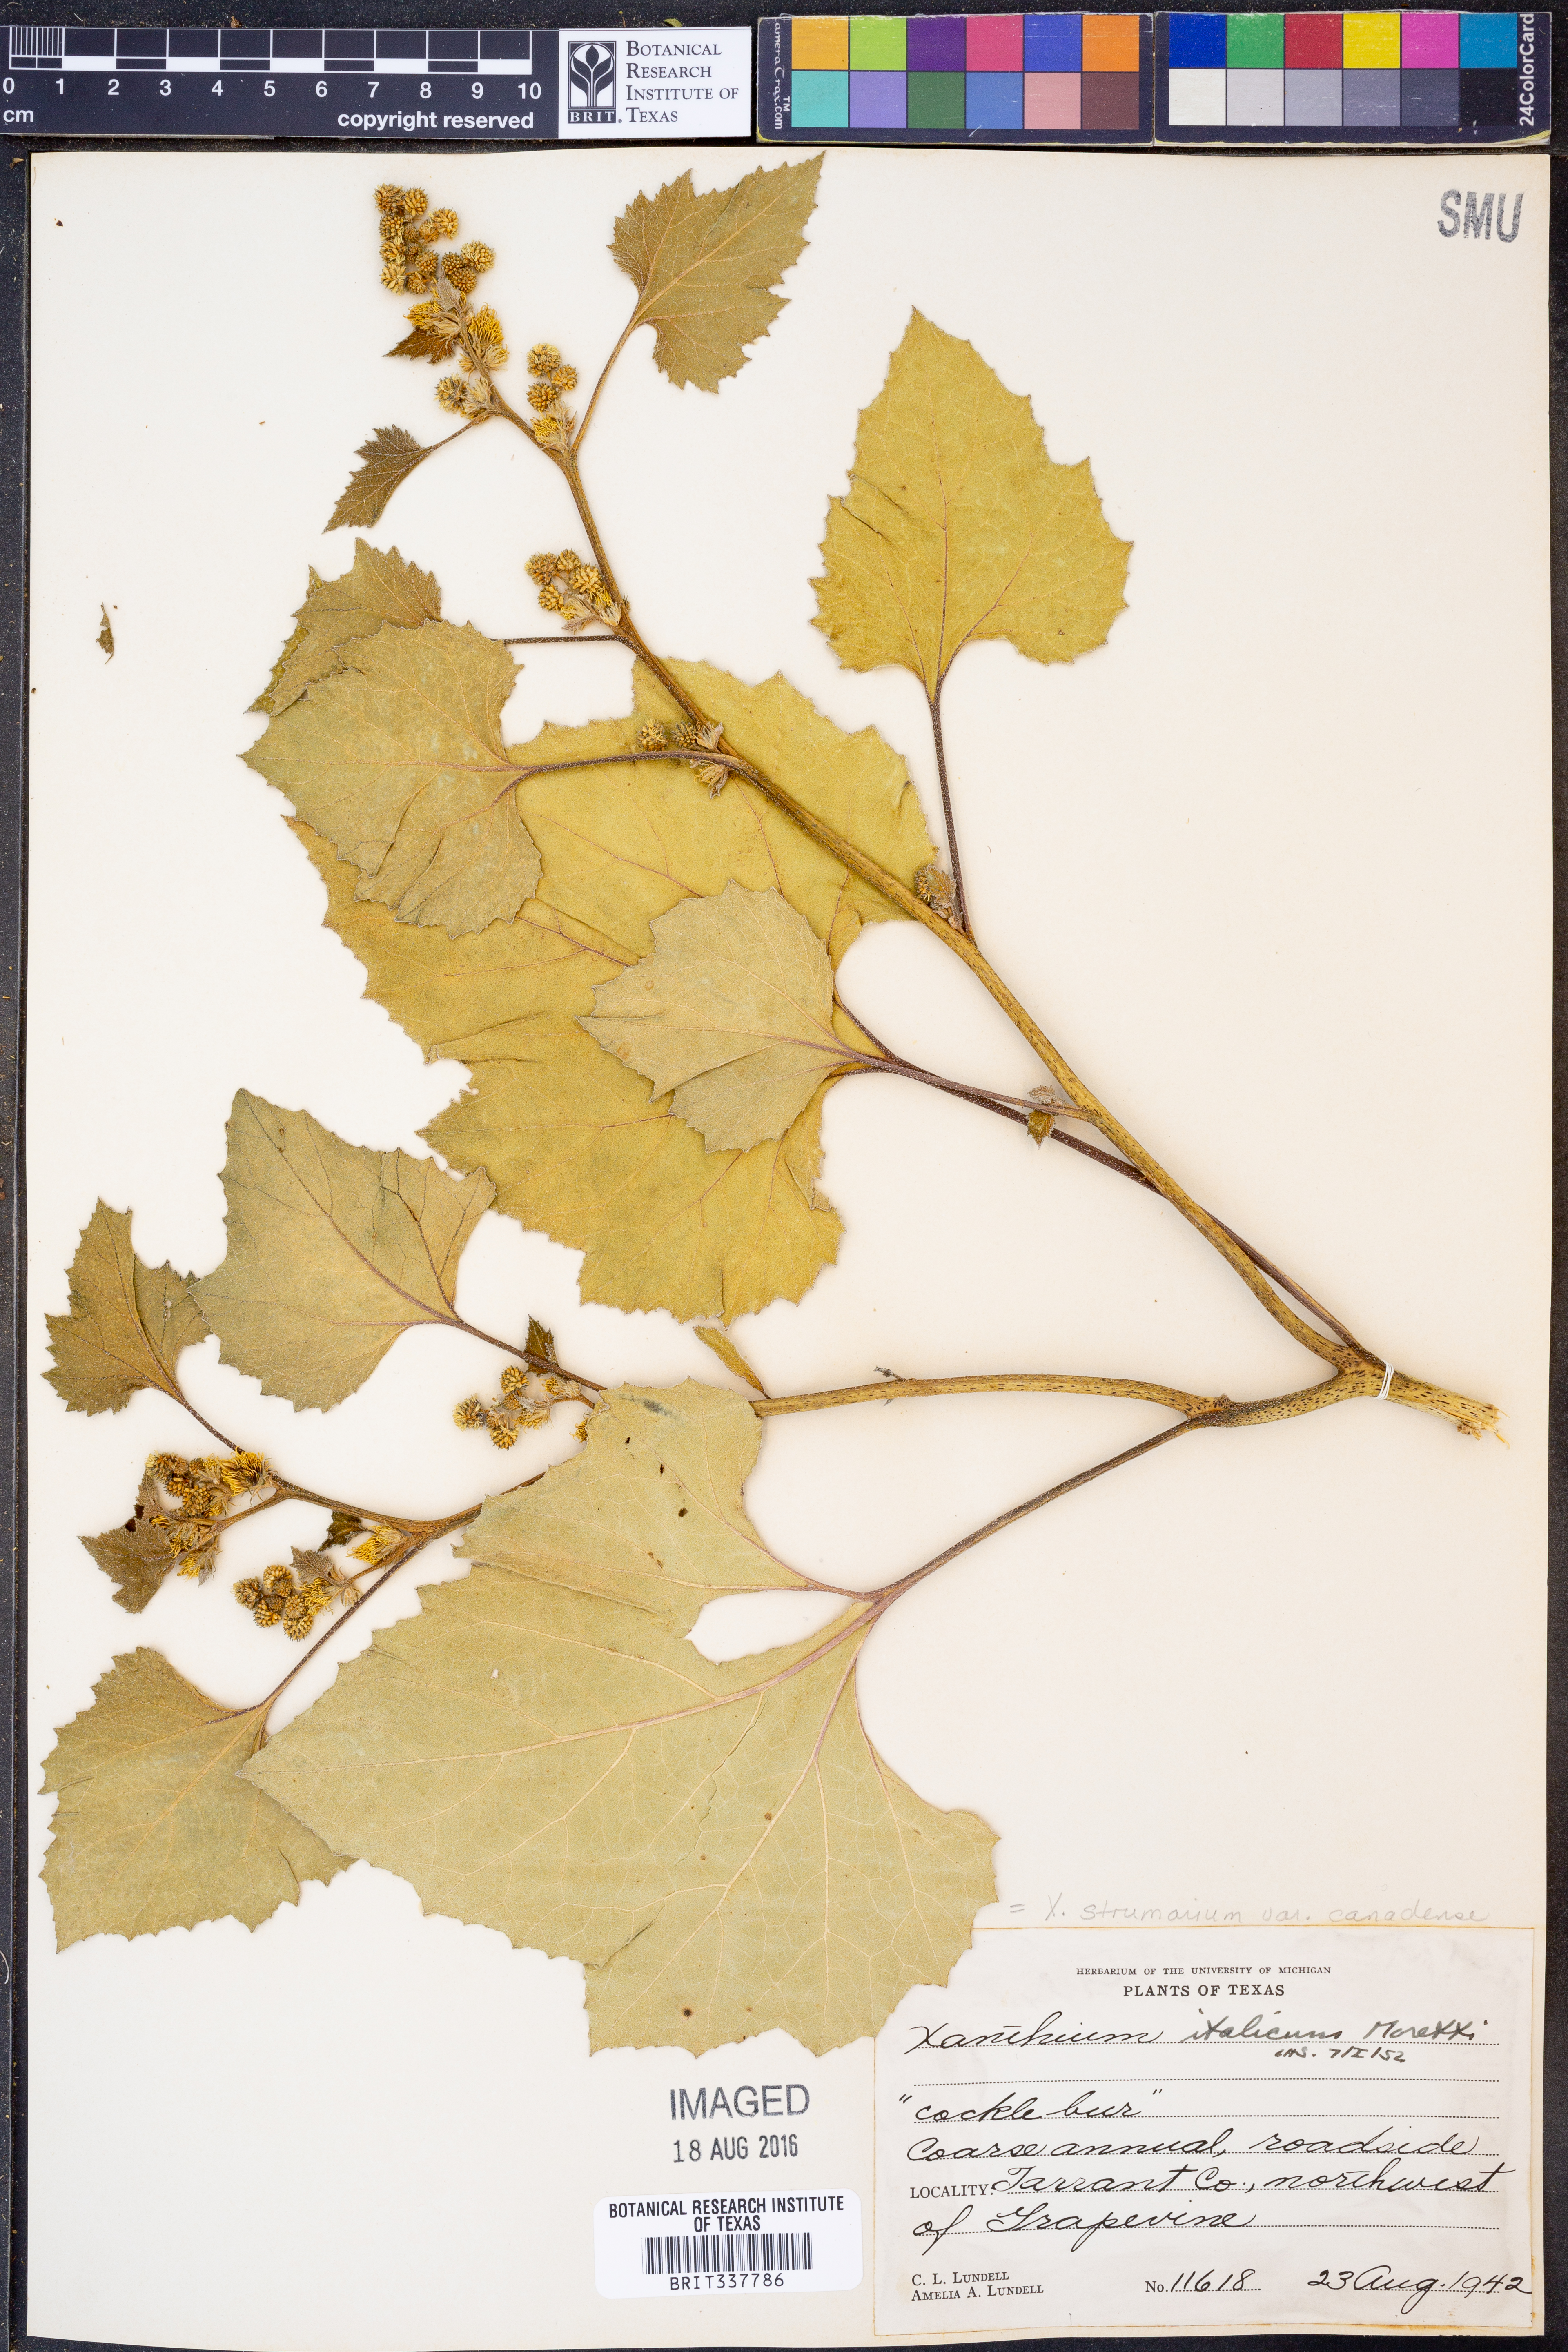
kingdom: Plantae
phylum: Tracheophyta
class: Magnoliopsida
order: Asterales
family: Asteraceae
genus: Xanthium
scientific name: Xanthium orientale
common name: Californian burr
